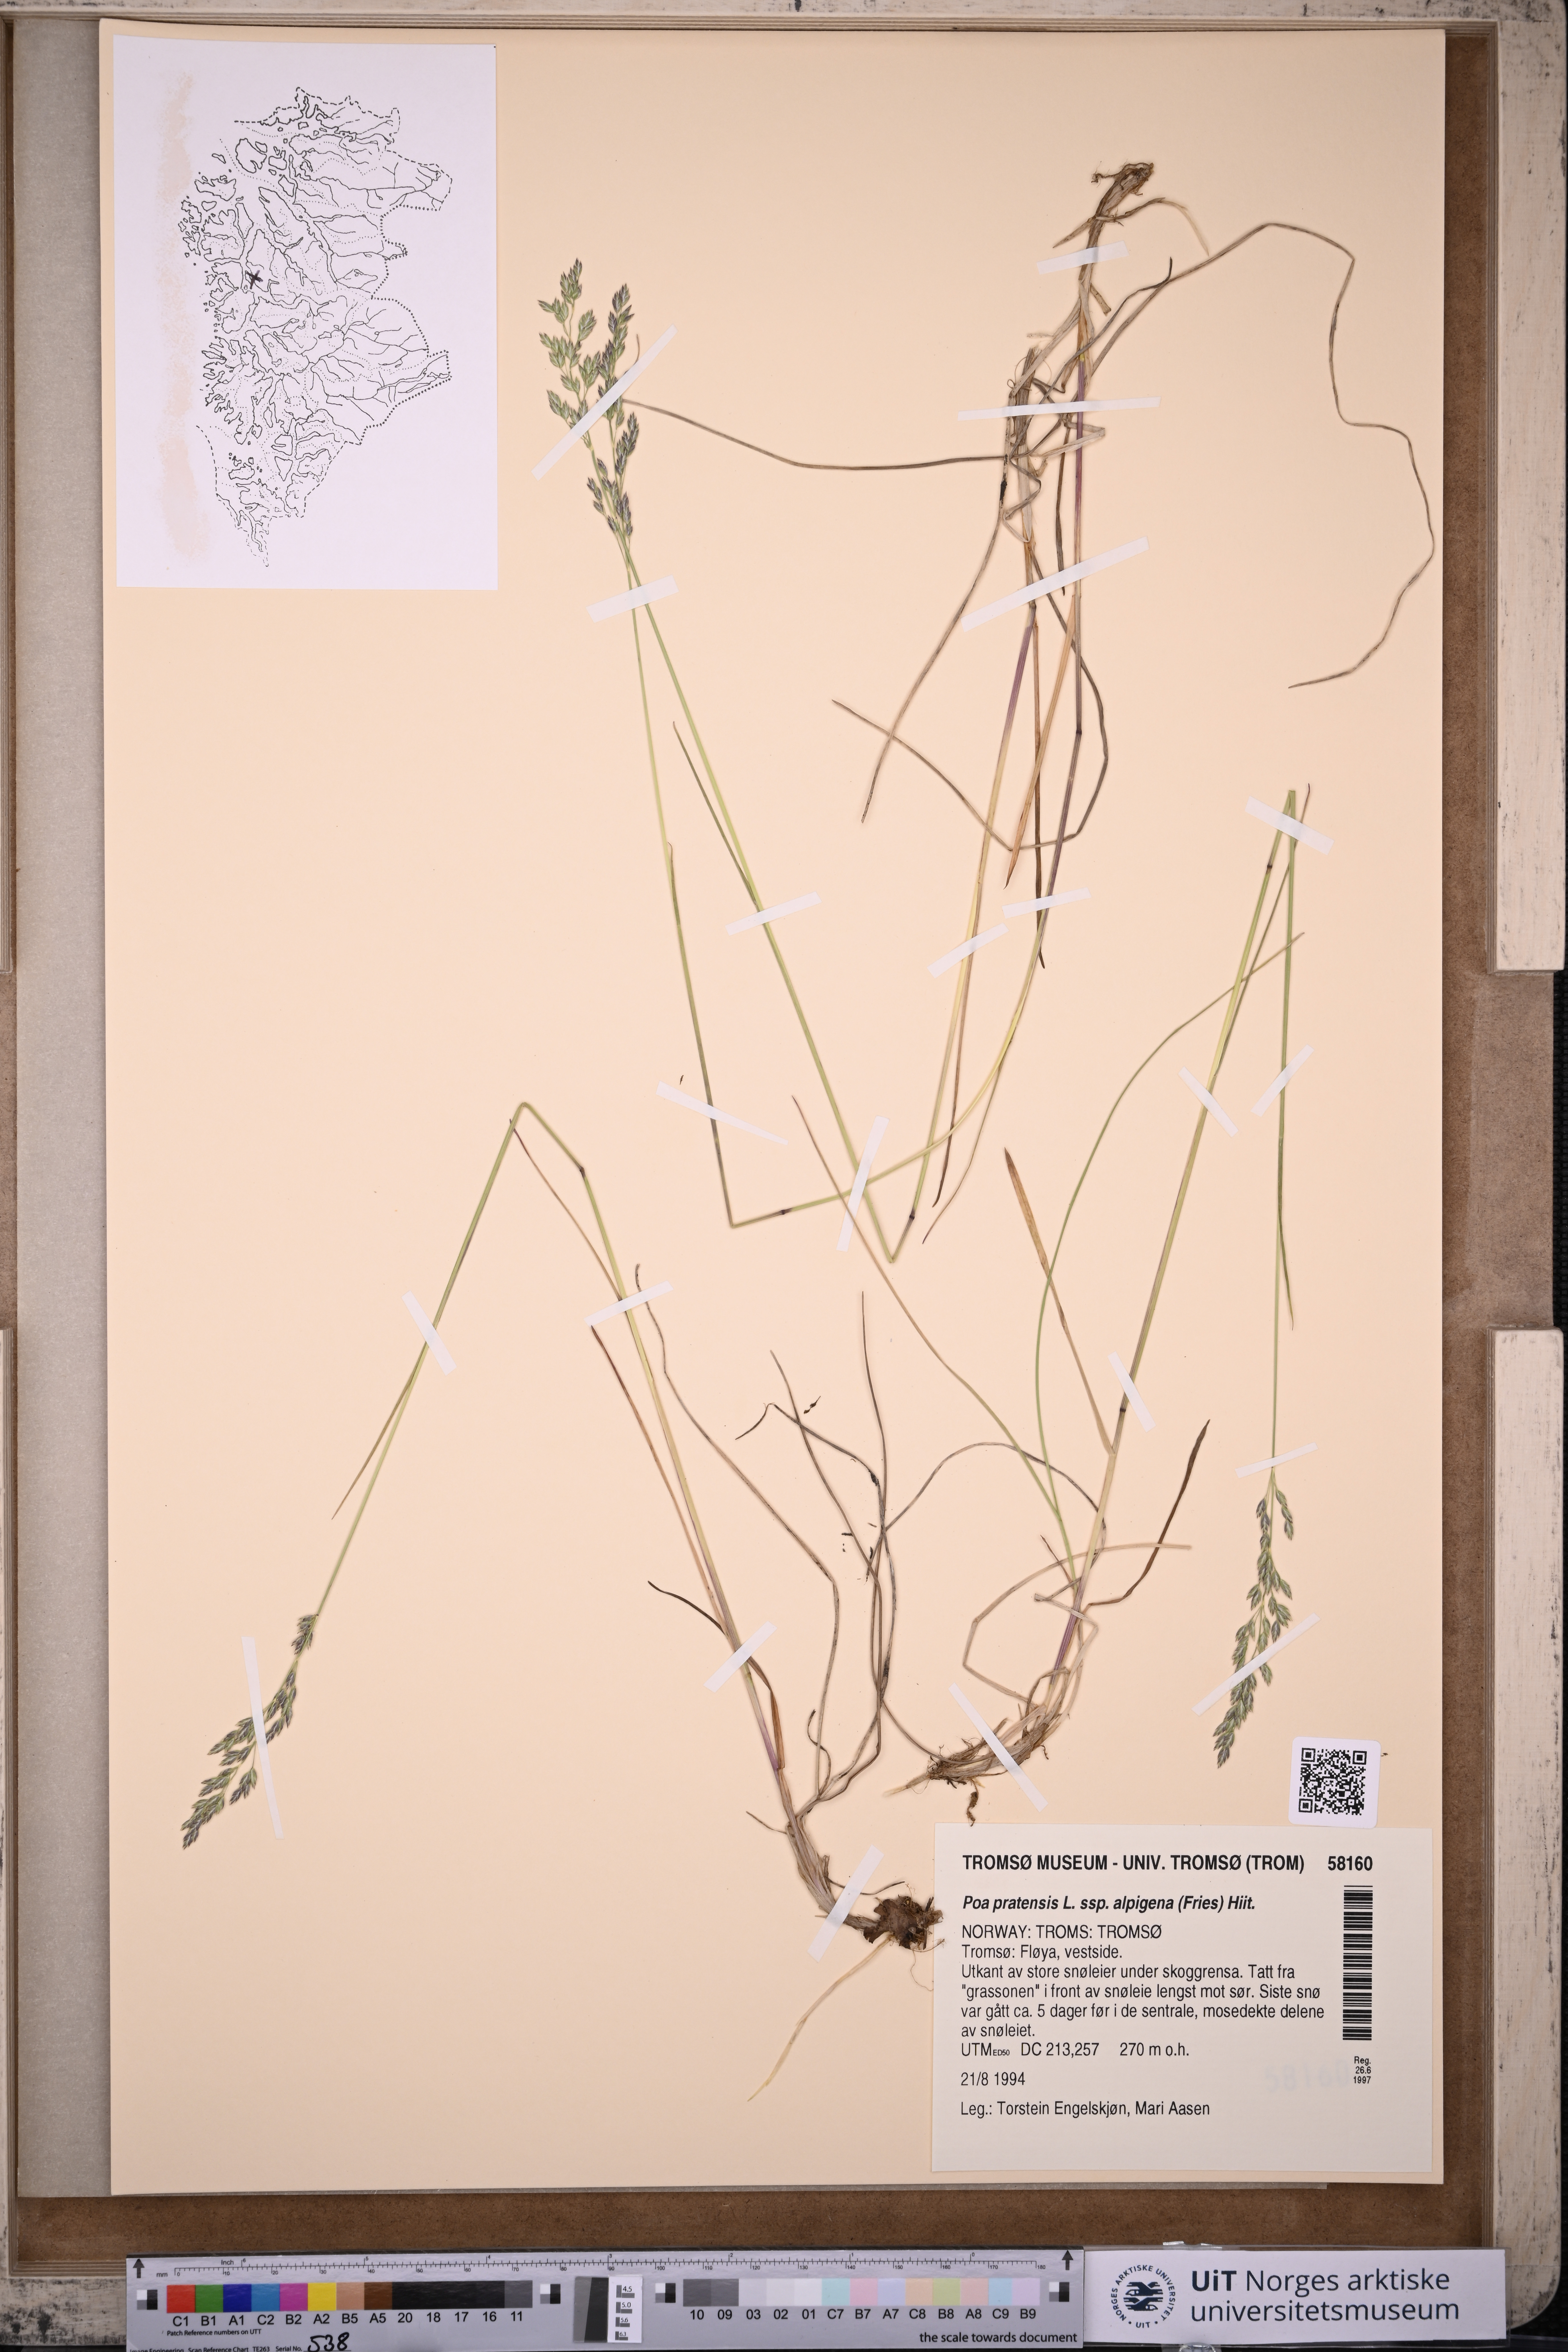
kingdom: Plantae
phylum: Tracheophyta
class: Liliopsida
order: Poales
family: Poaceae
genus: Poa
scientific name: Poa alpigena
